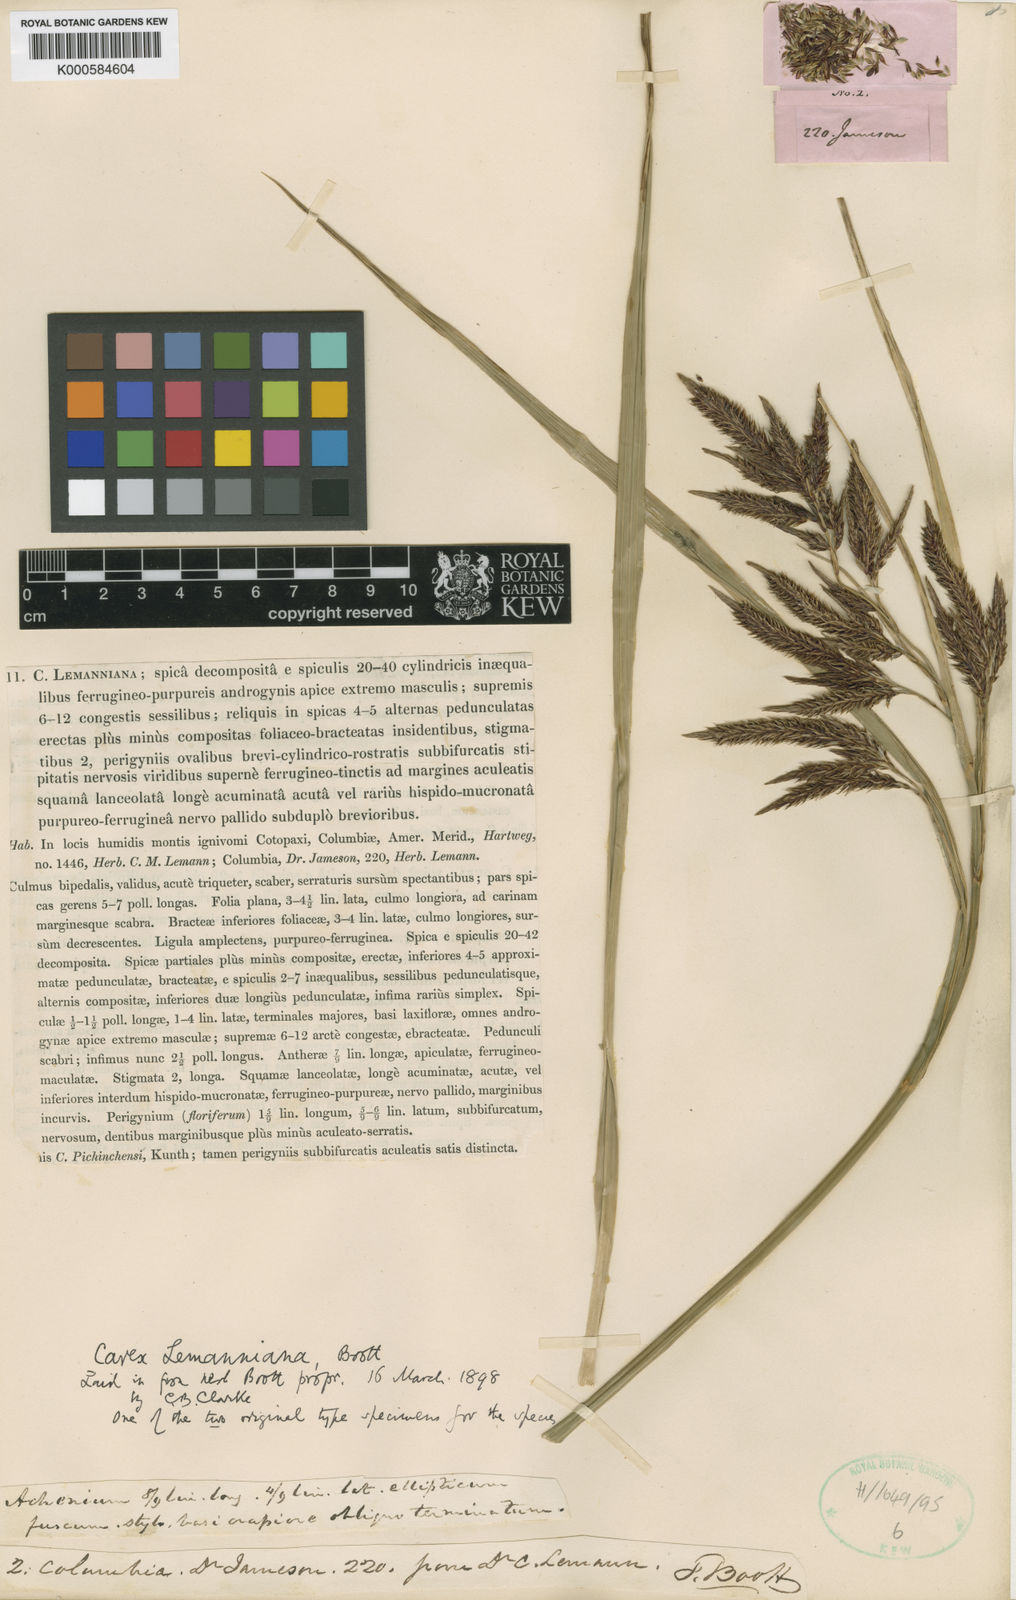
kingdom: Plantae
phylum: Tracheophyta
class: Liliopsida
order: Poales
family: Cyperaceae
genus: Carex
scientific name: Carex
